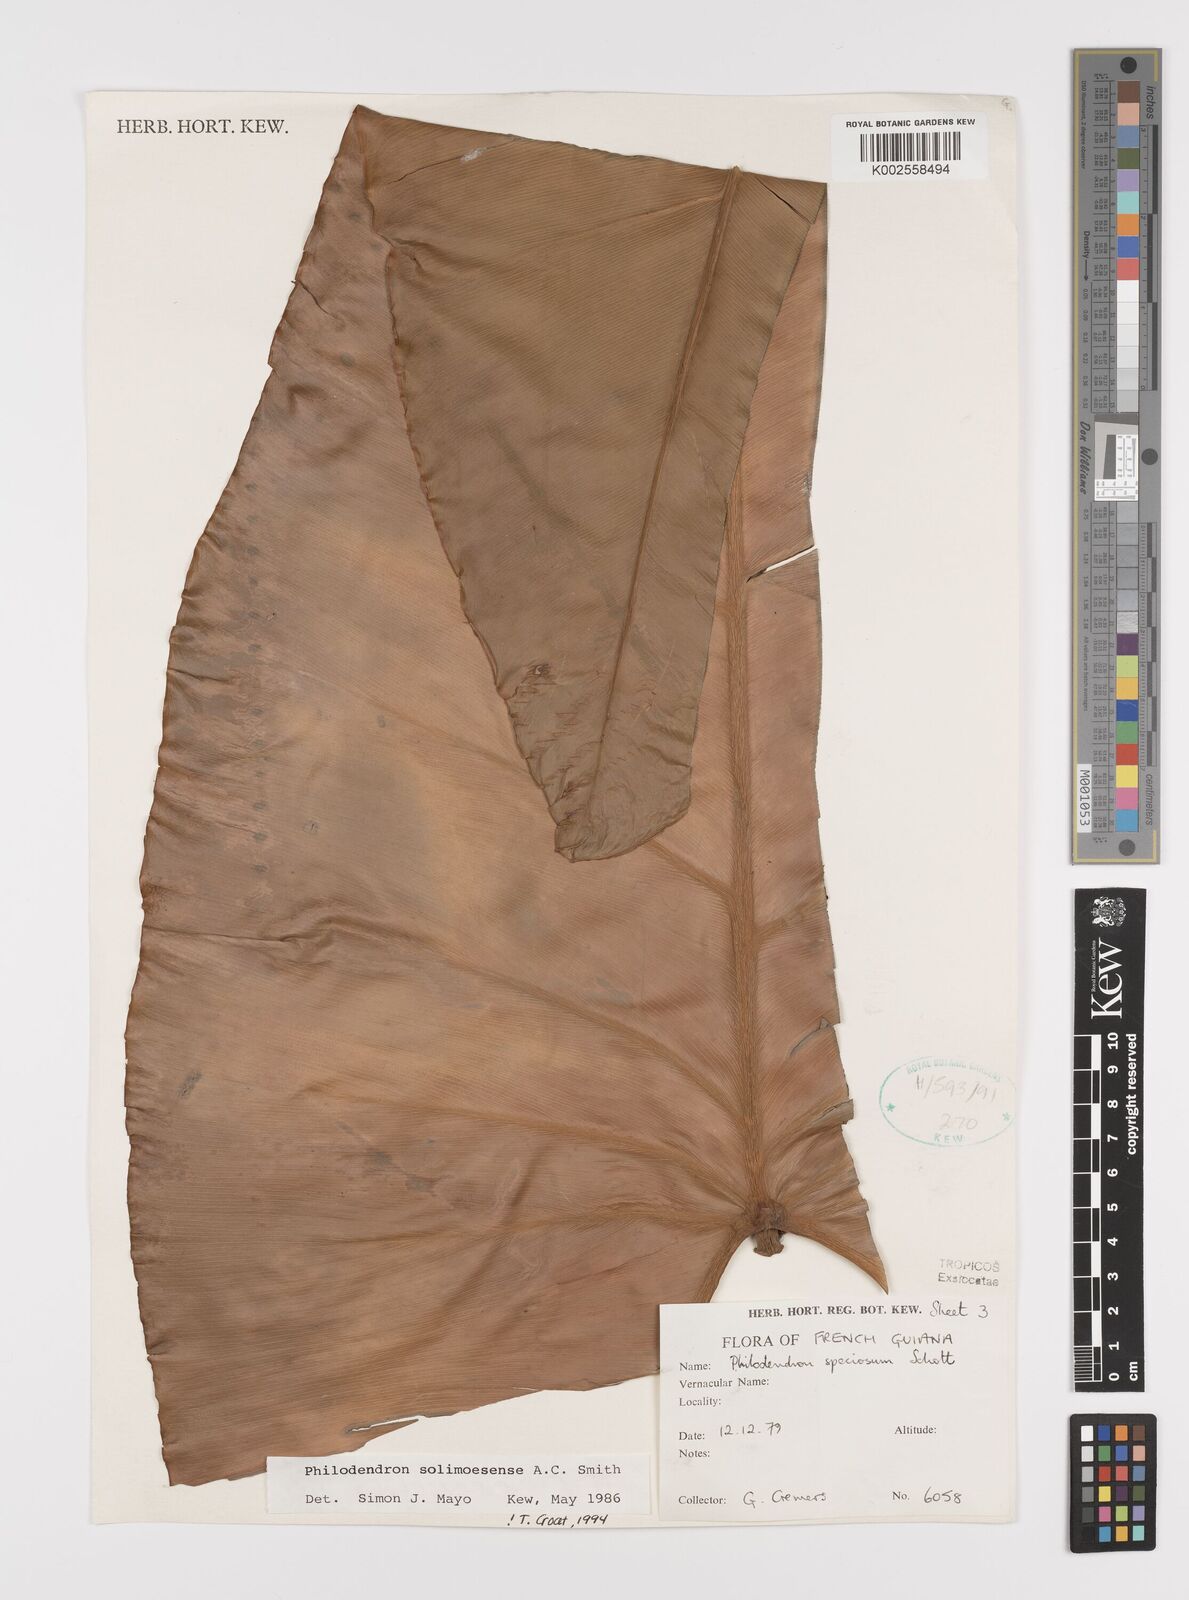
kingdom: Plantae
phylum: Tracheophyta
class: Liliopsida
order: Alismatales
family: Araceae
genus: Thaumatophyllum
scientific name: Thaumatophyllum solimoesense
